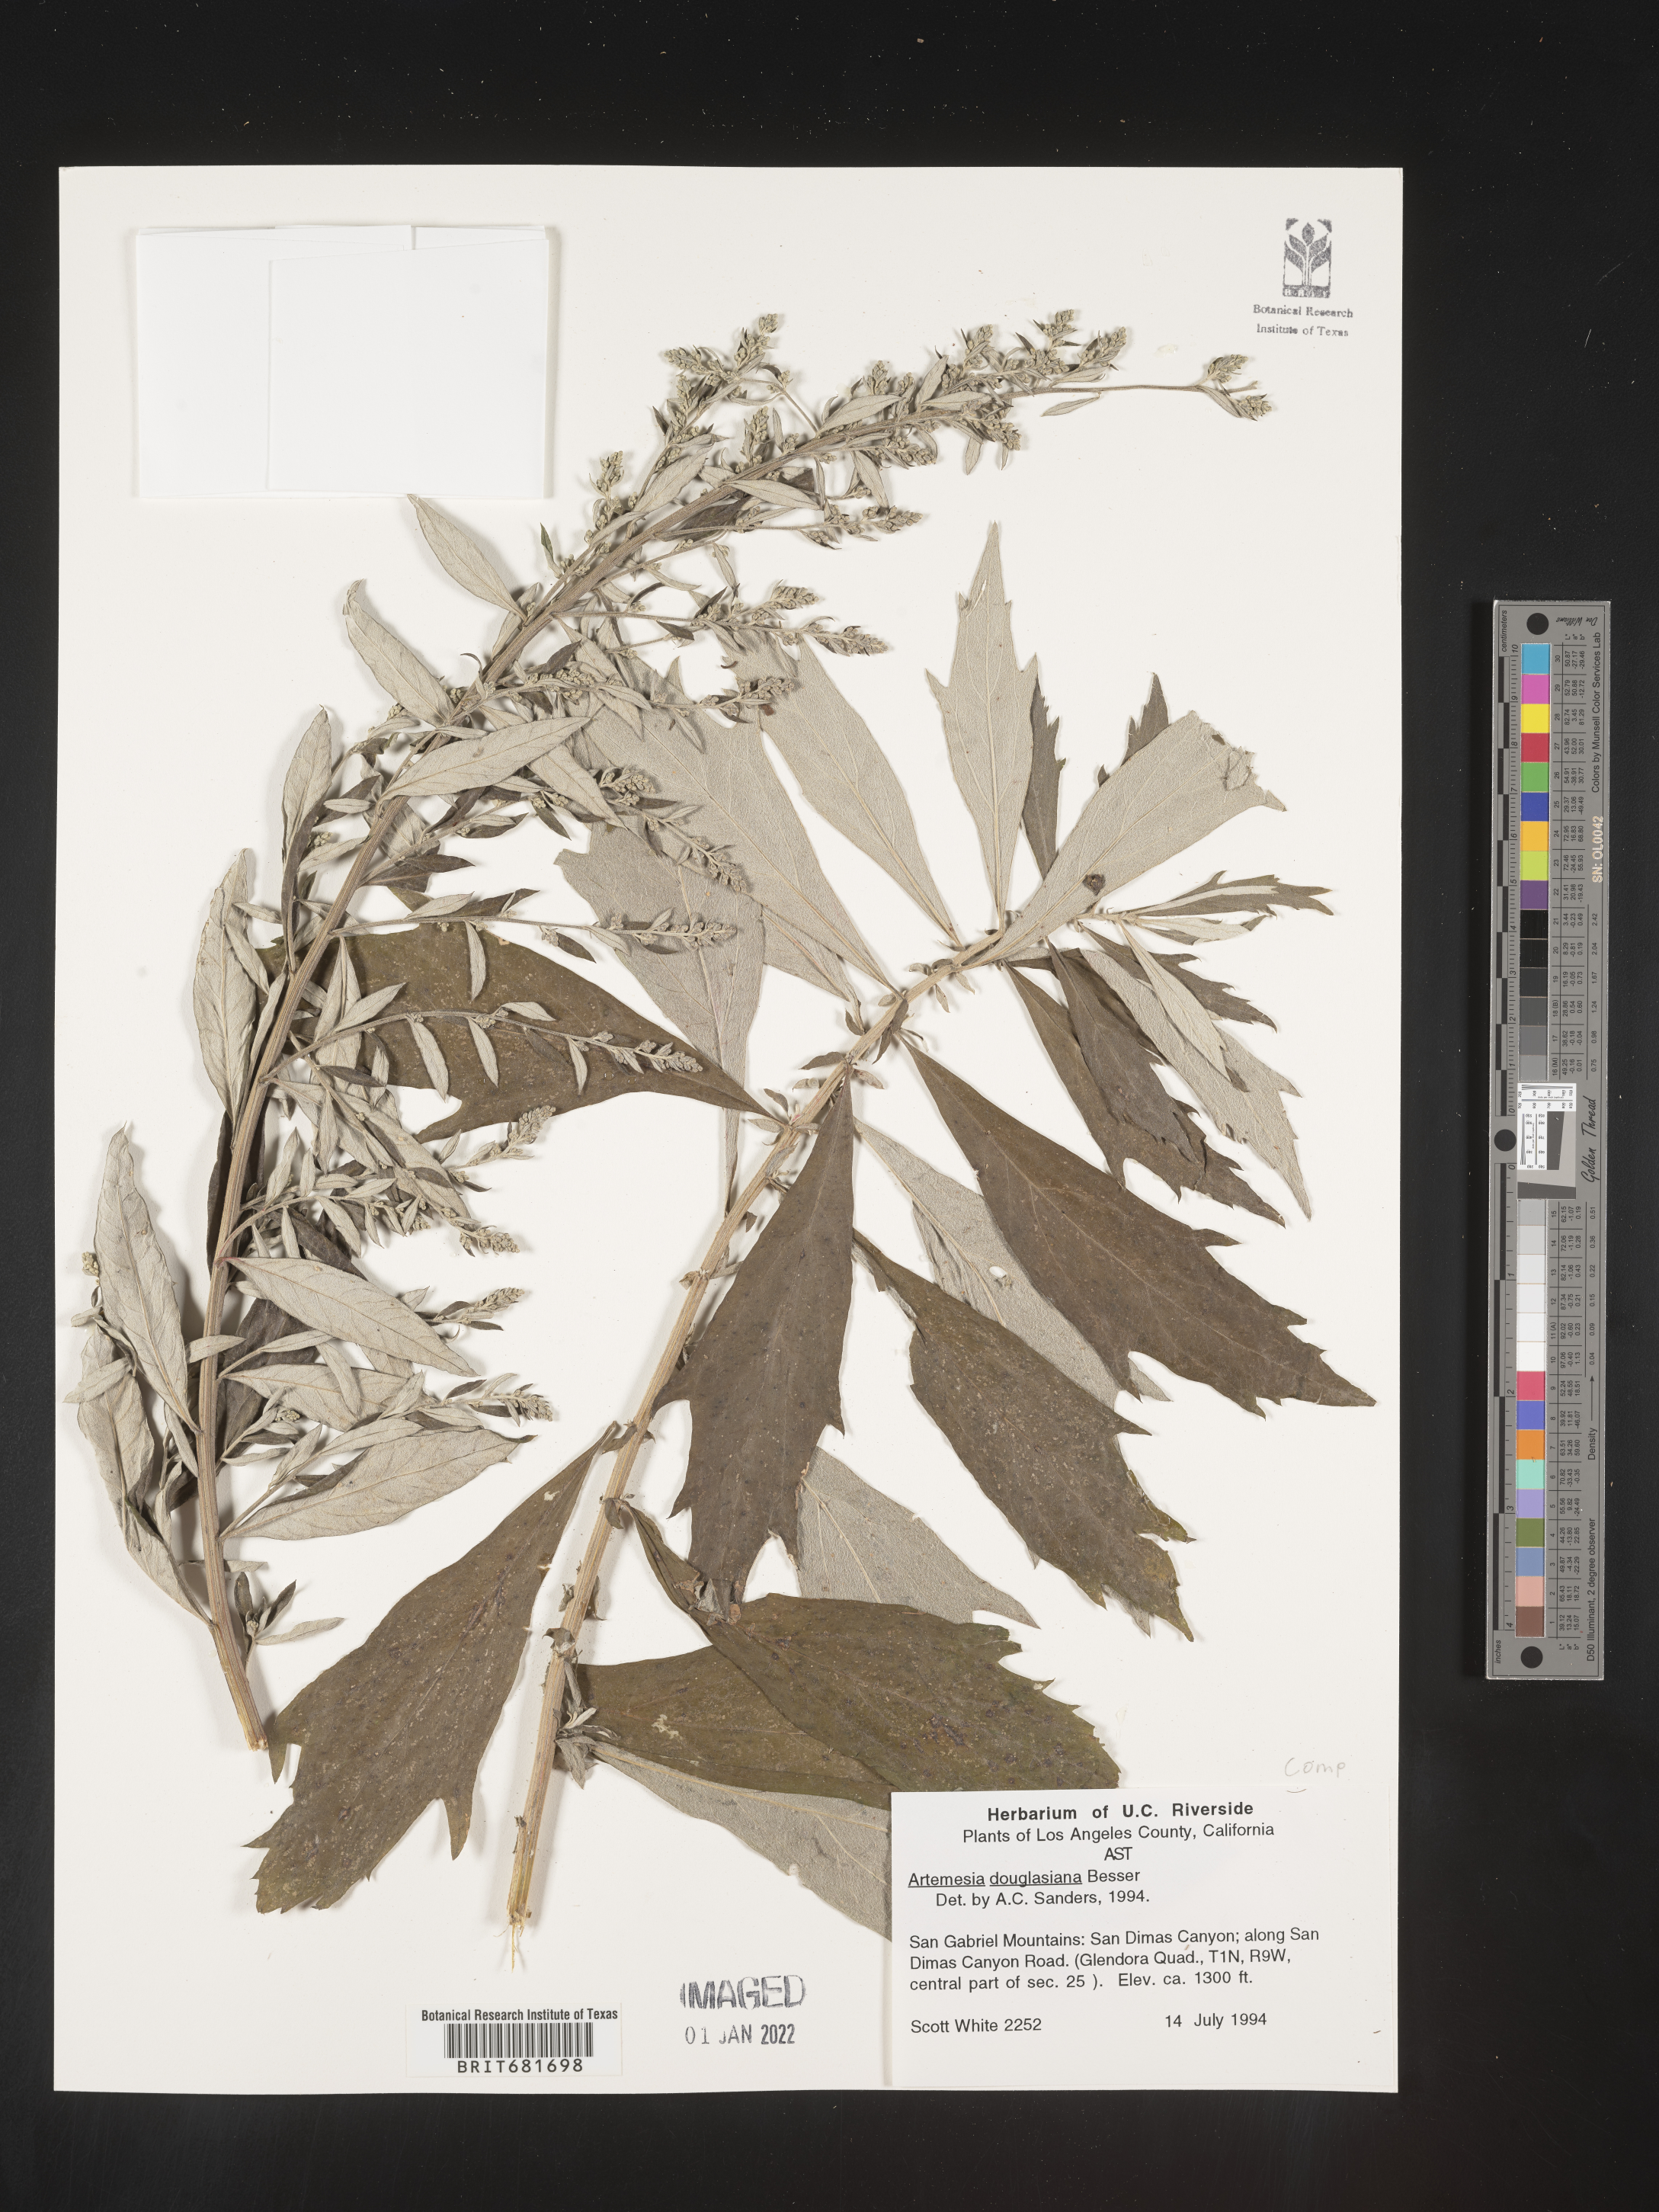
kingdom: Plantae
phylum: Tracheophyta
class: Magnoliopsida
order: Asterales
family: Asteraceae
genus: Artemisia
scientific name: Artemisia douglasiana
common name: Northwest mugwort
